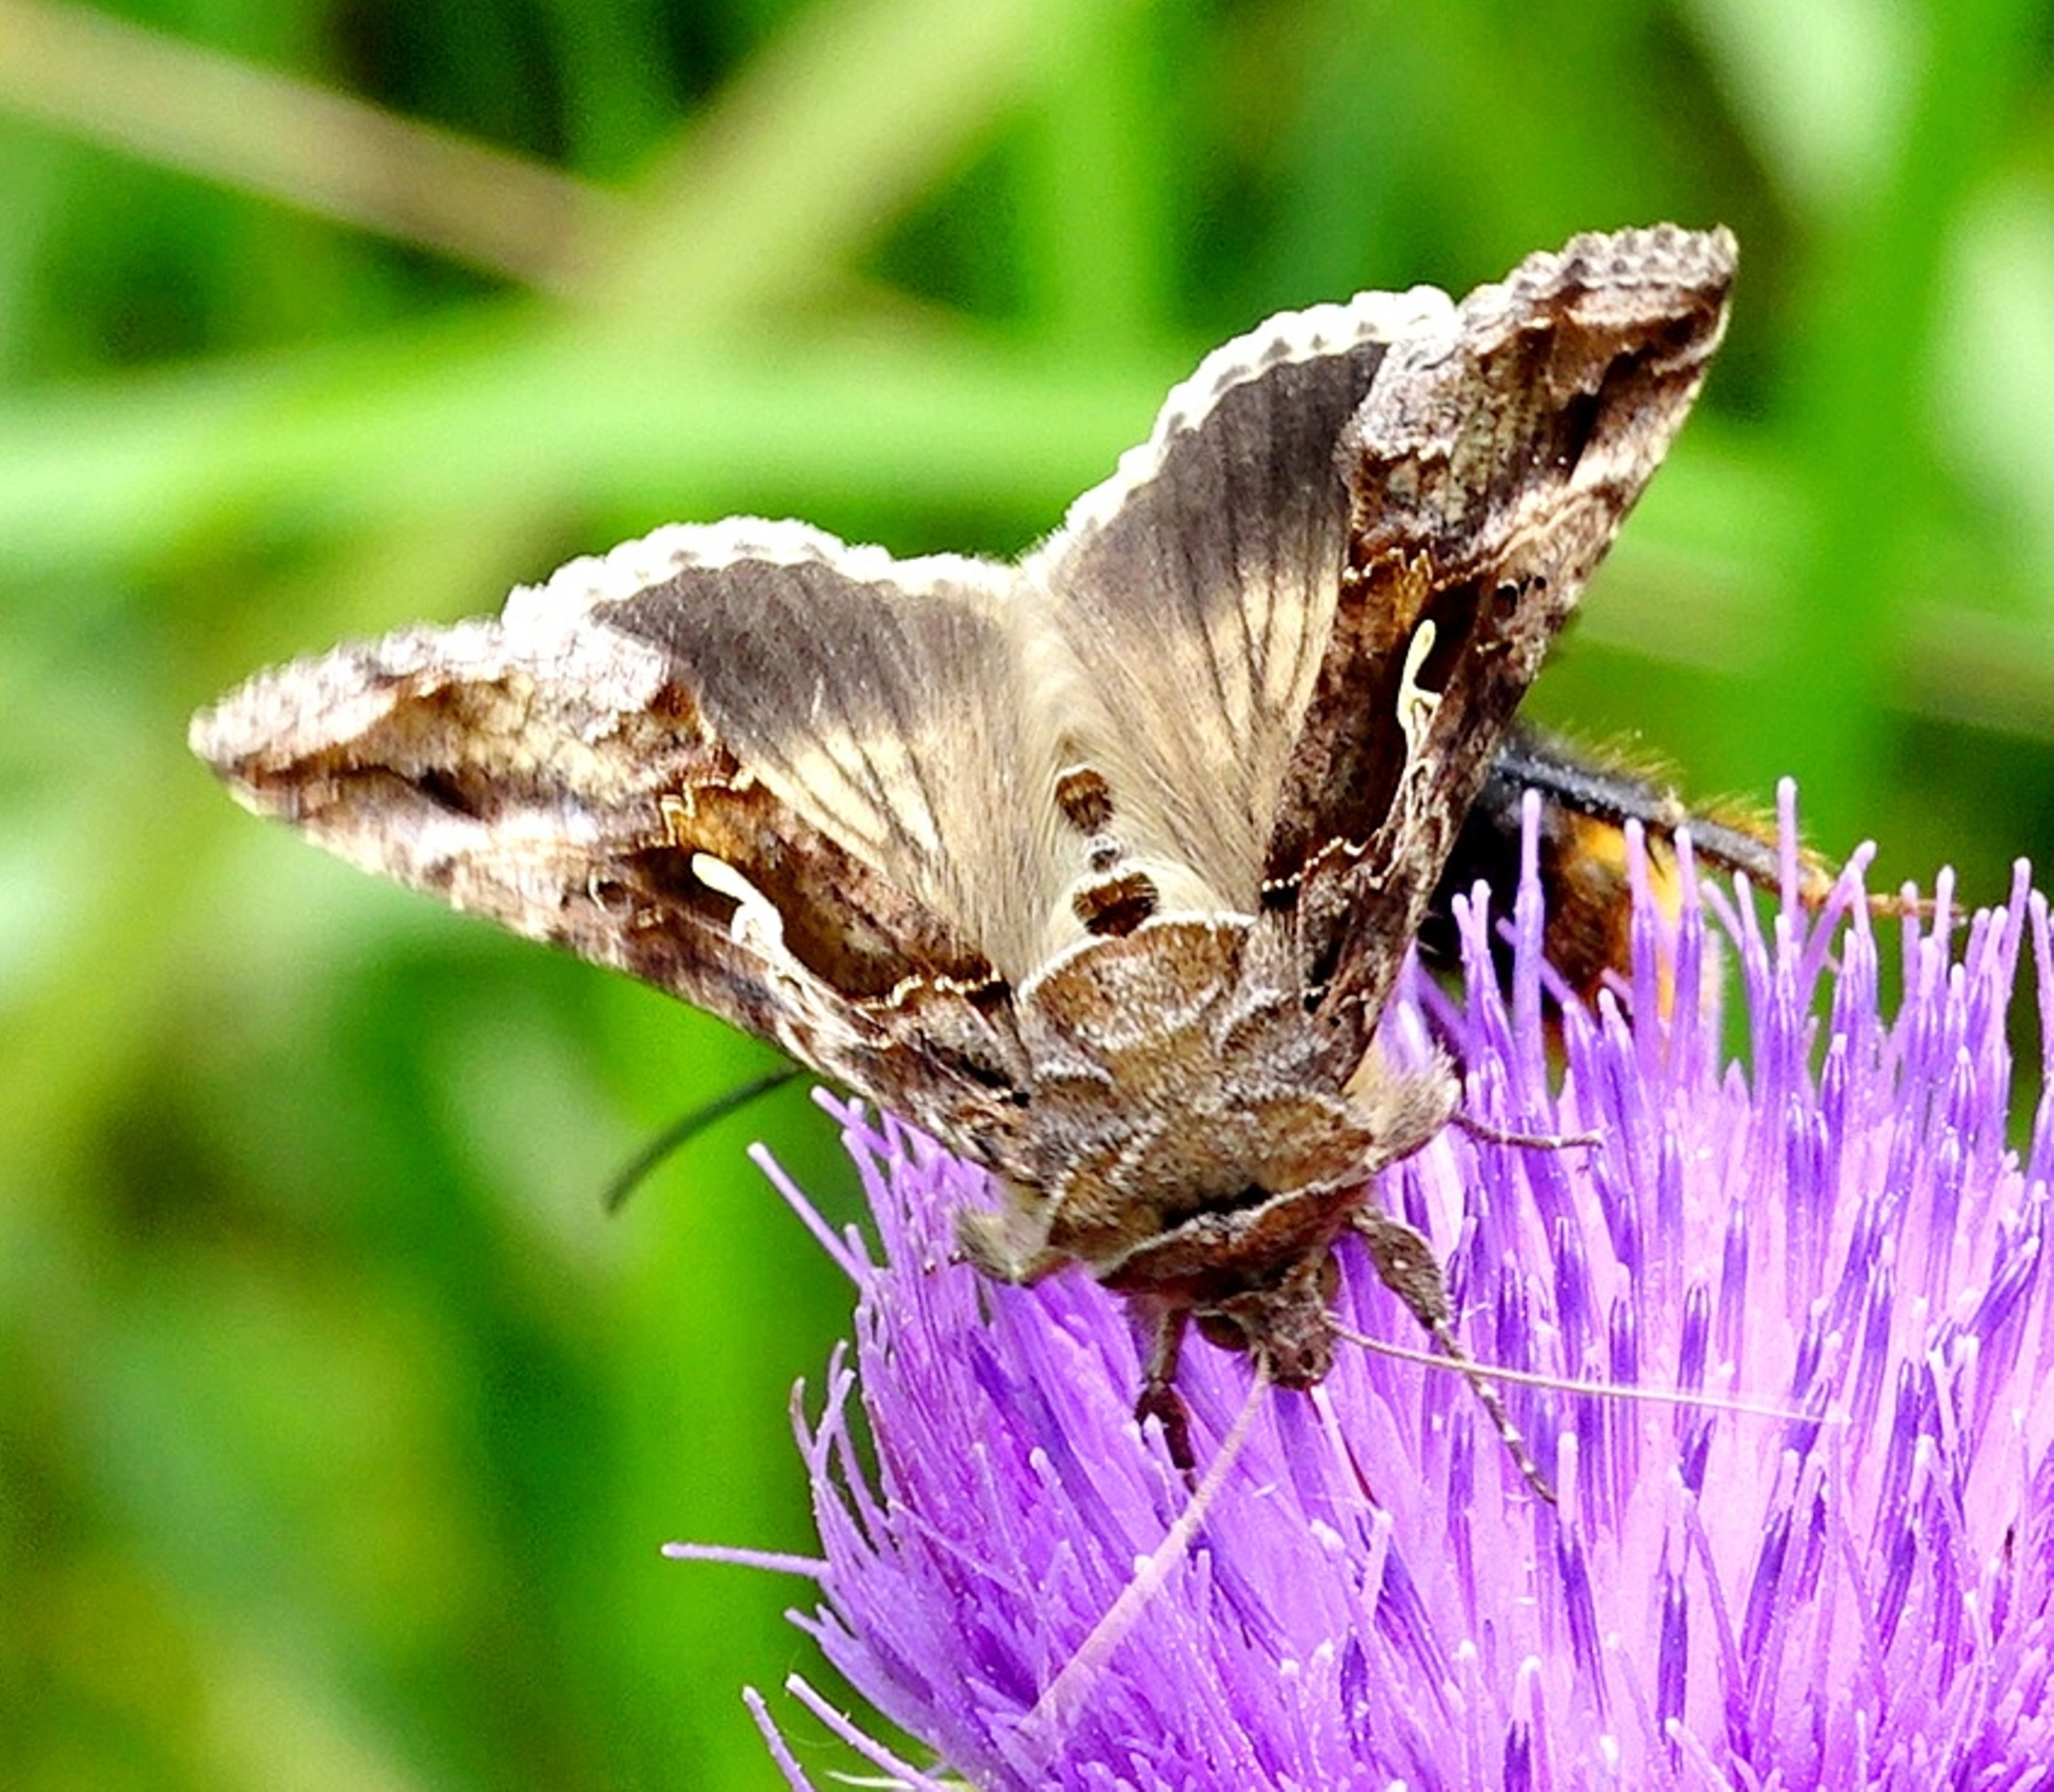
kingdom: Animalia
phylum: Arthropoda
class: Insecta
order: Lepidoptera
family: Noctuidae
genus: Autographa
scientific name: Autographa gamma
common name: Gammaugle
